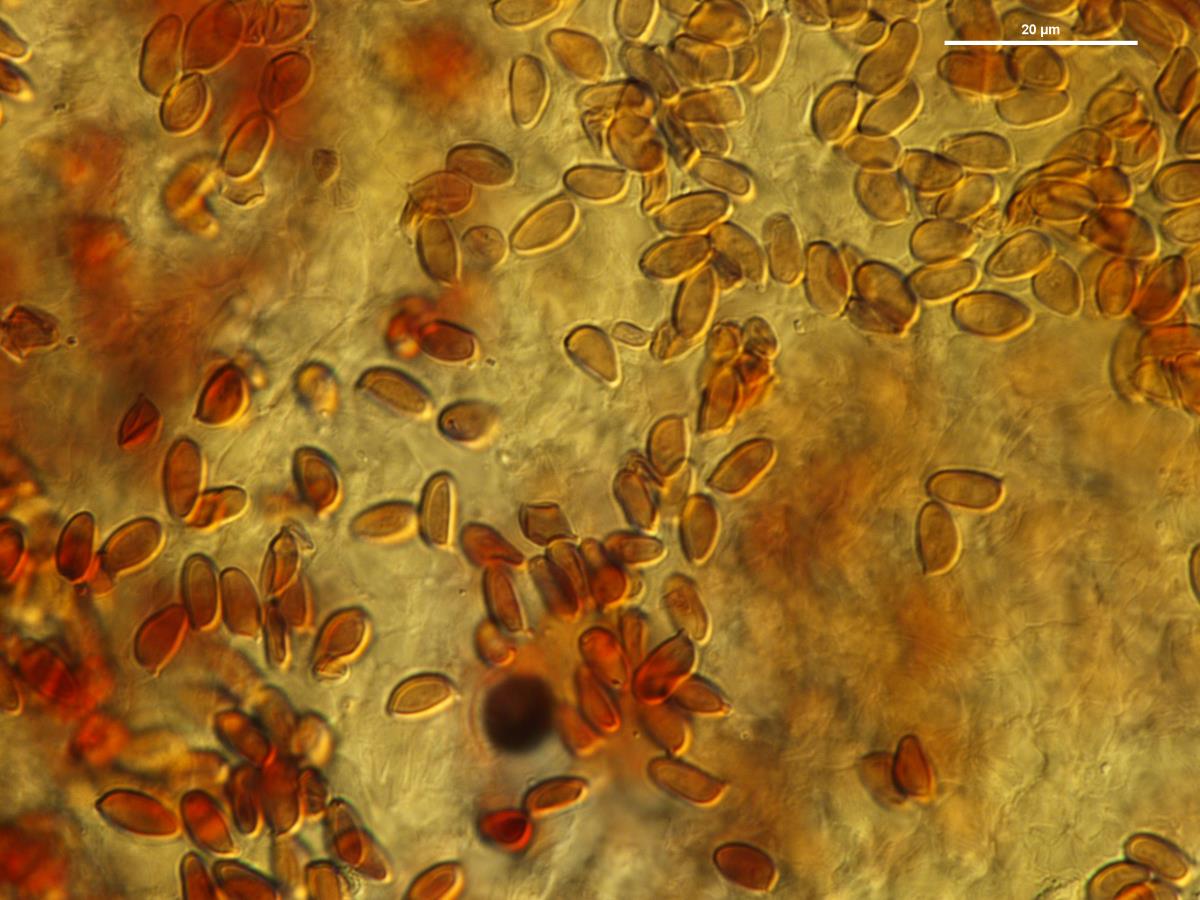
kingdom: Fungi
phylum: Basidiomycota
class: Agaricomycetes
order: Agaricales
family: Agaricaceae
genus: Leucoagaricus
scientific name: Leucoagaricus
